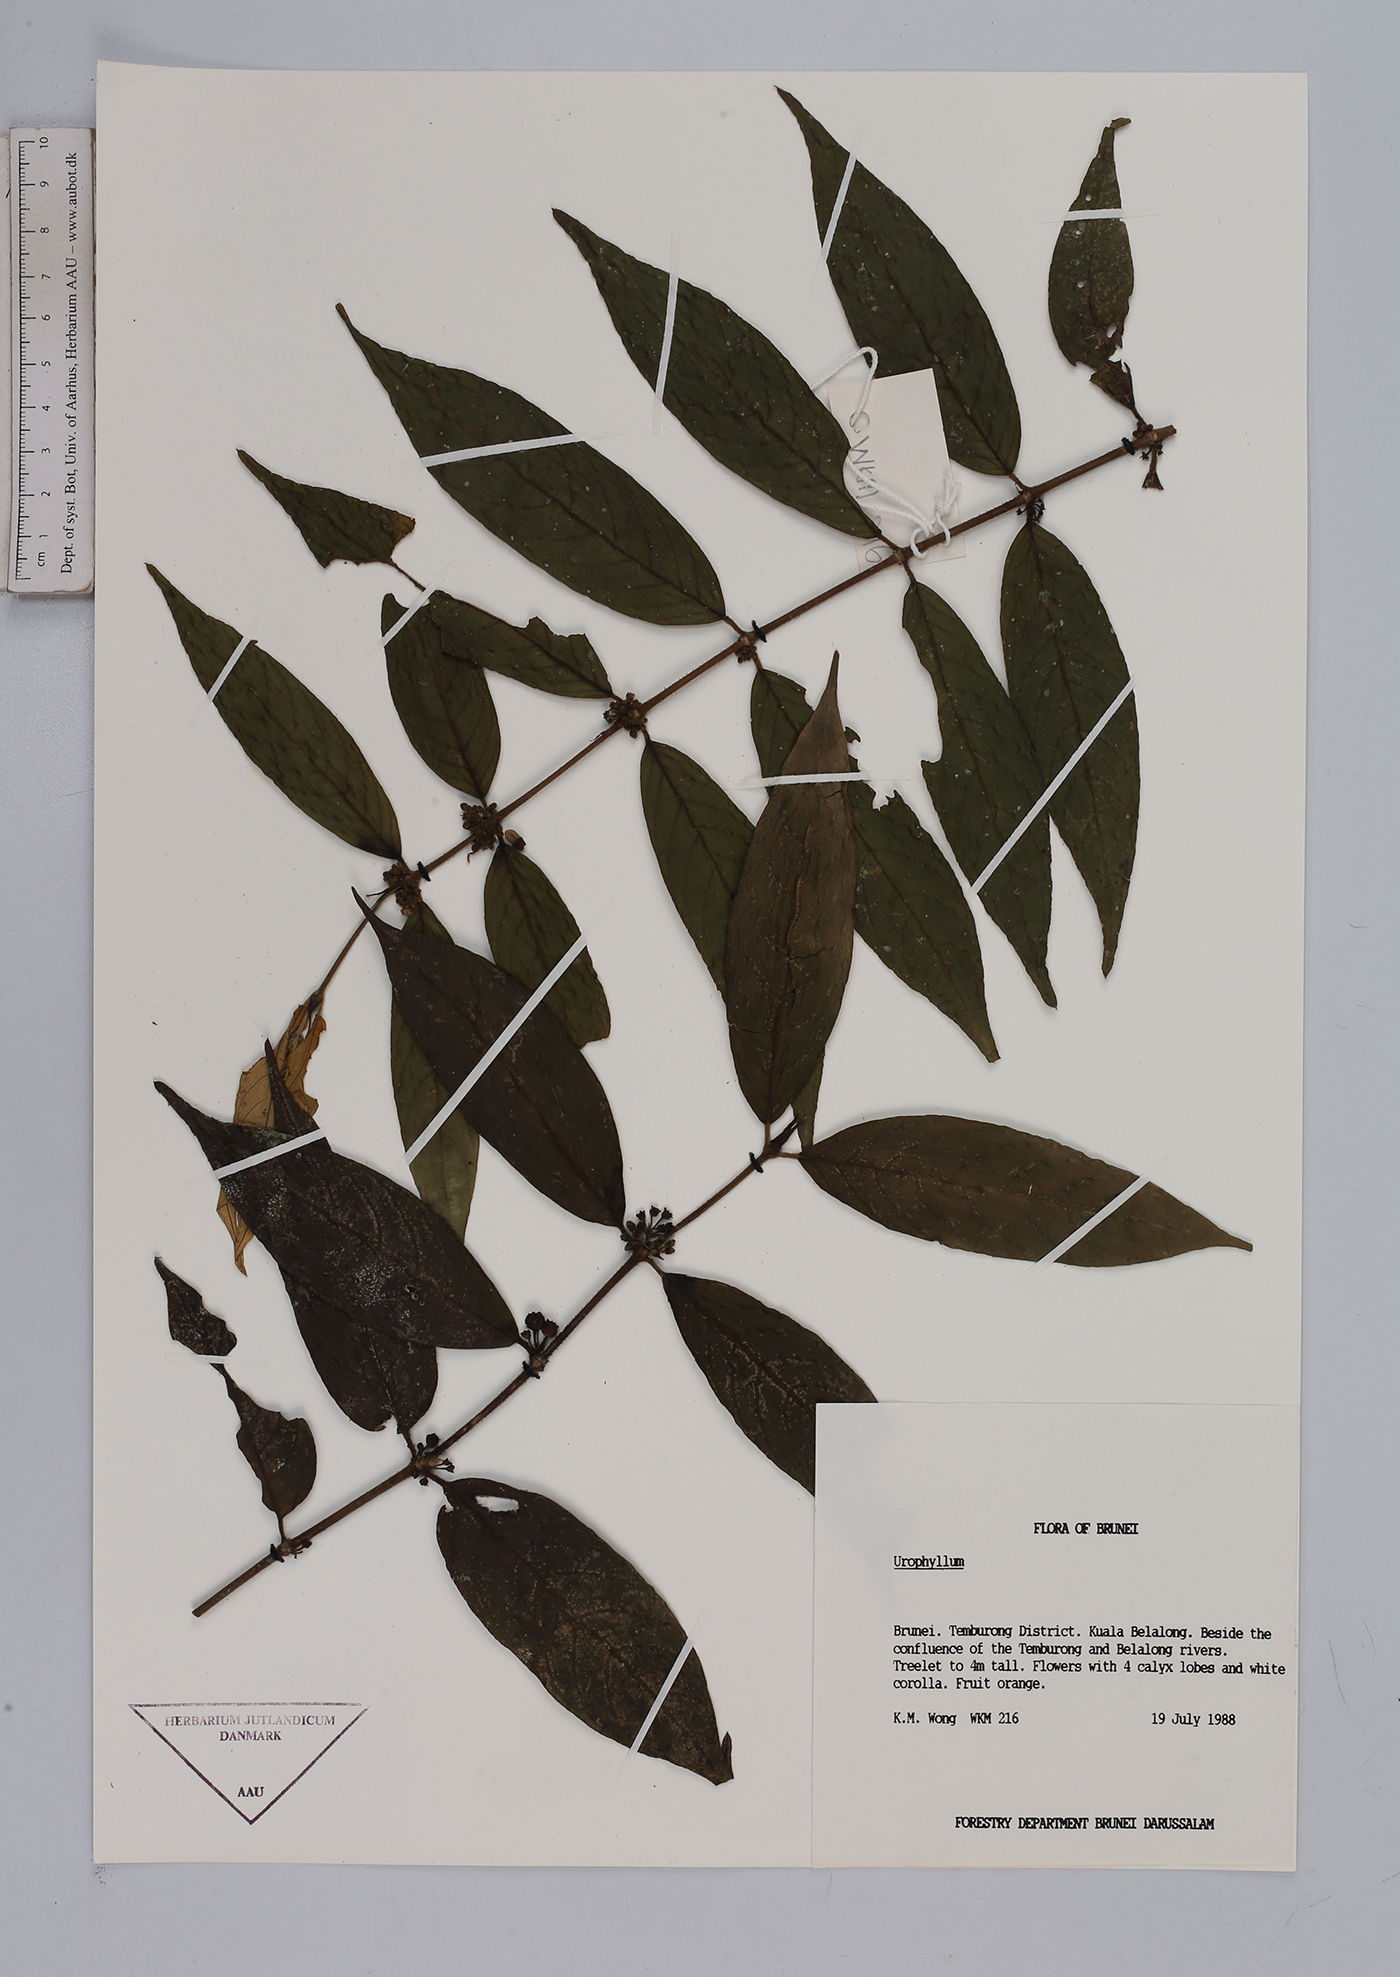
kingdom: Plantae
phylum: Tracheophyta
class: Magnoliopsida
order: Gentianales
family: Rubiaceae
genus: Urophyllum
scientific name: Urophyllum
